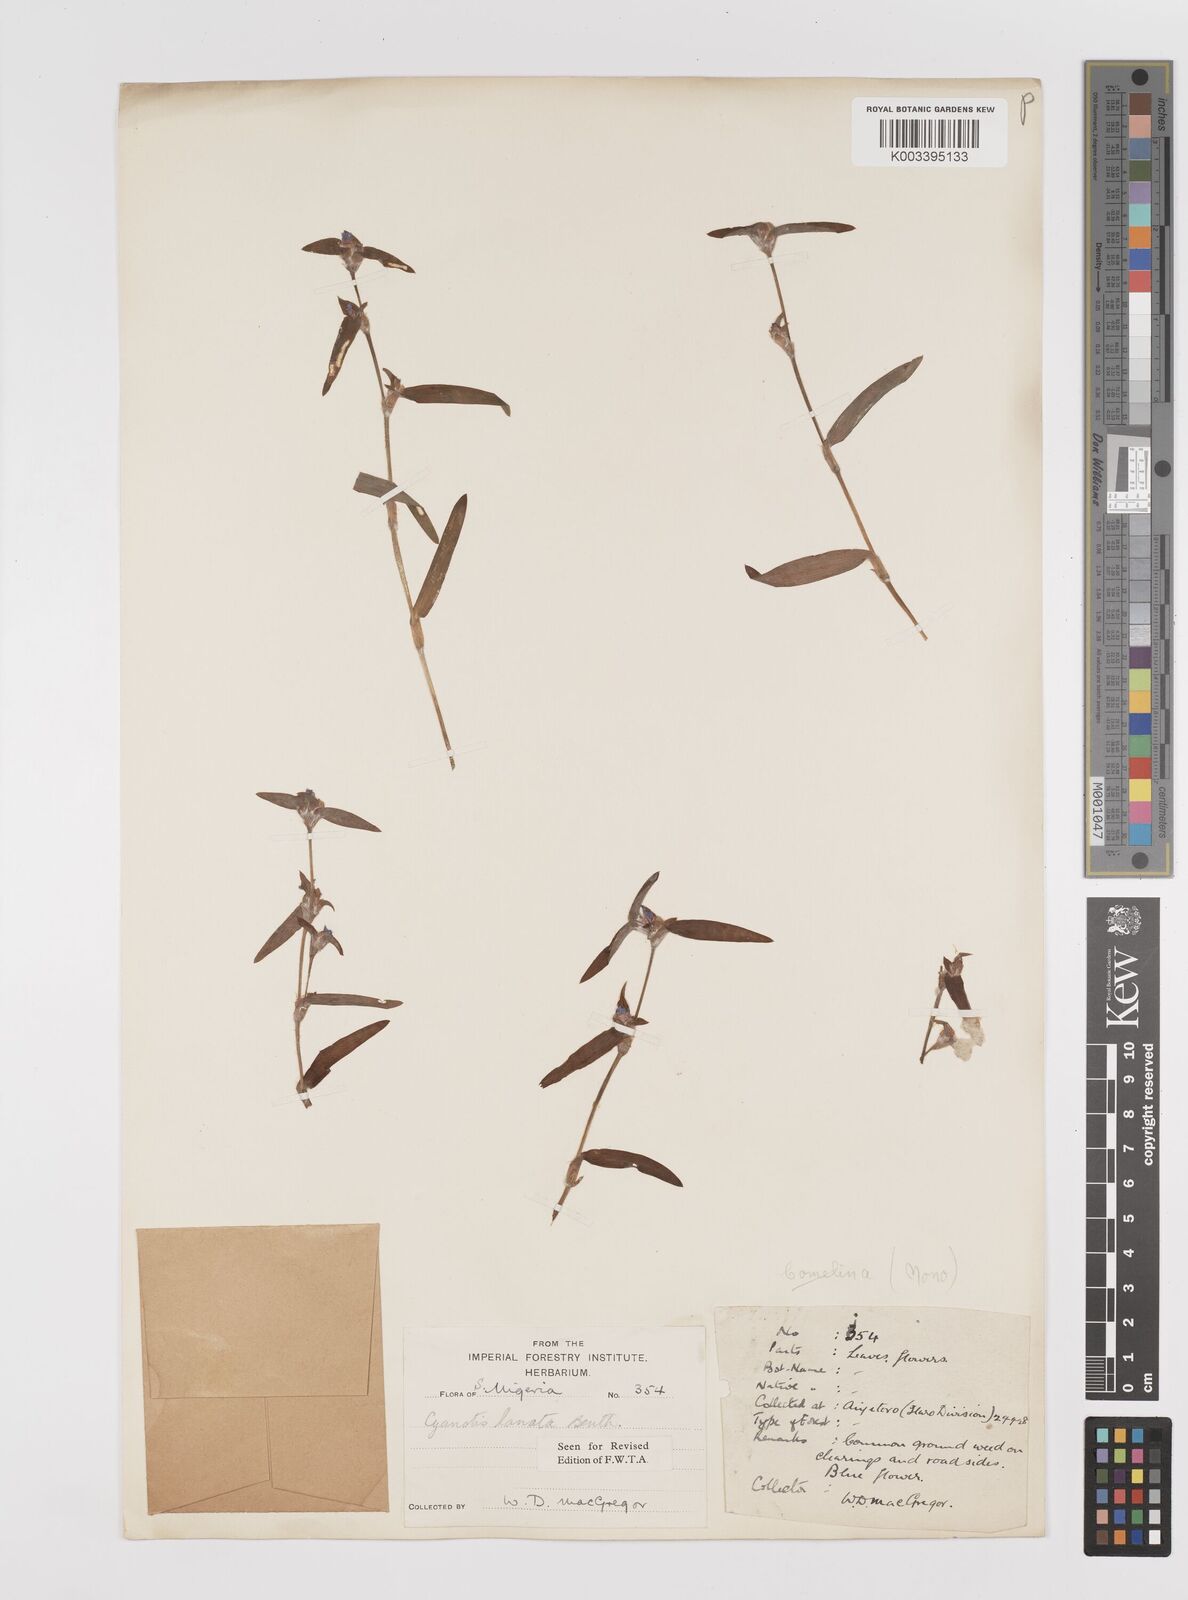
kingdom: Plantae
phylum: Tracheophyta
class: Liliopsida
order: Commelinales
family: Commelinaceae
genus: Cyanotis
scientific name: Cyanotis lanata
